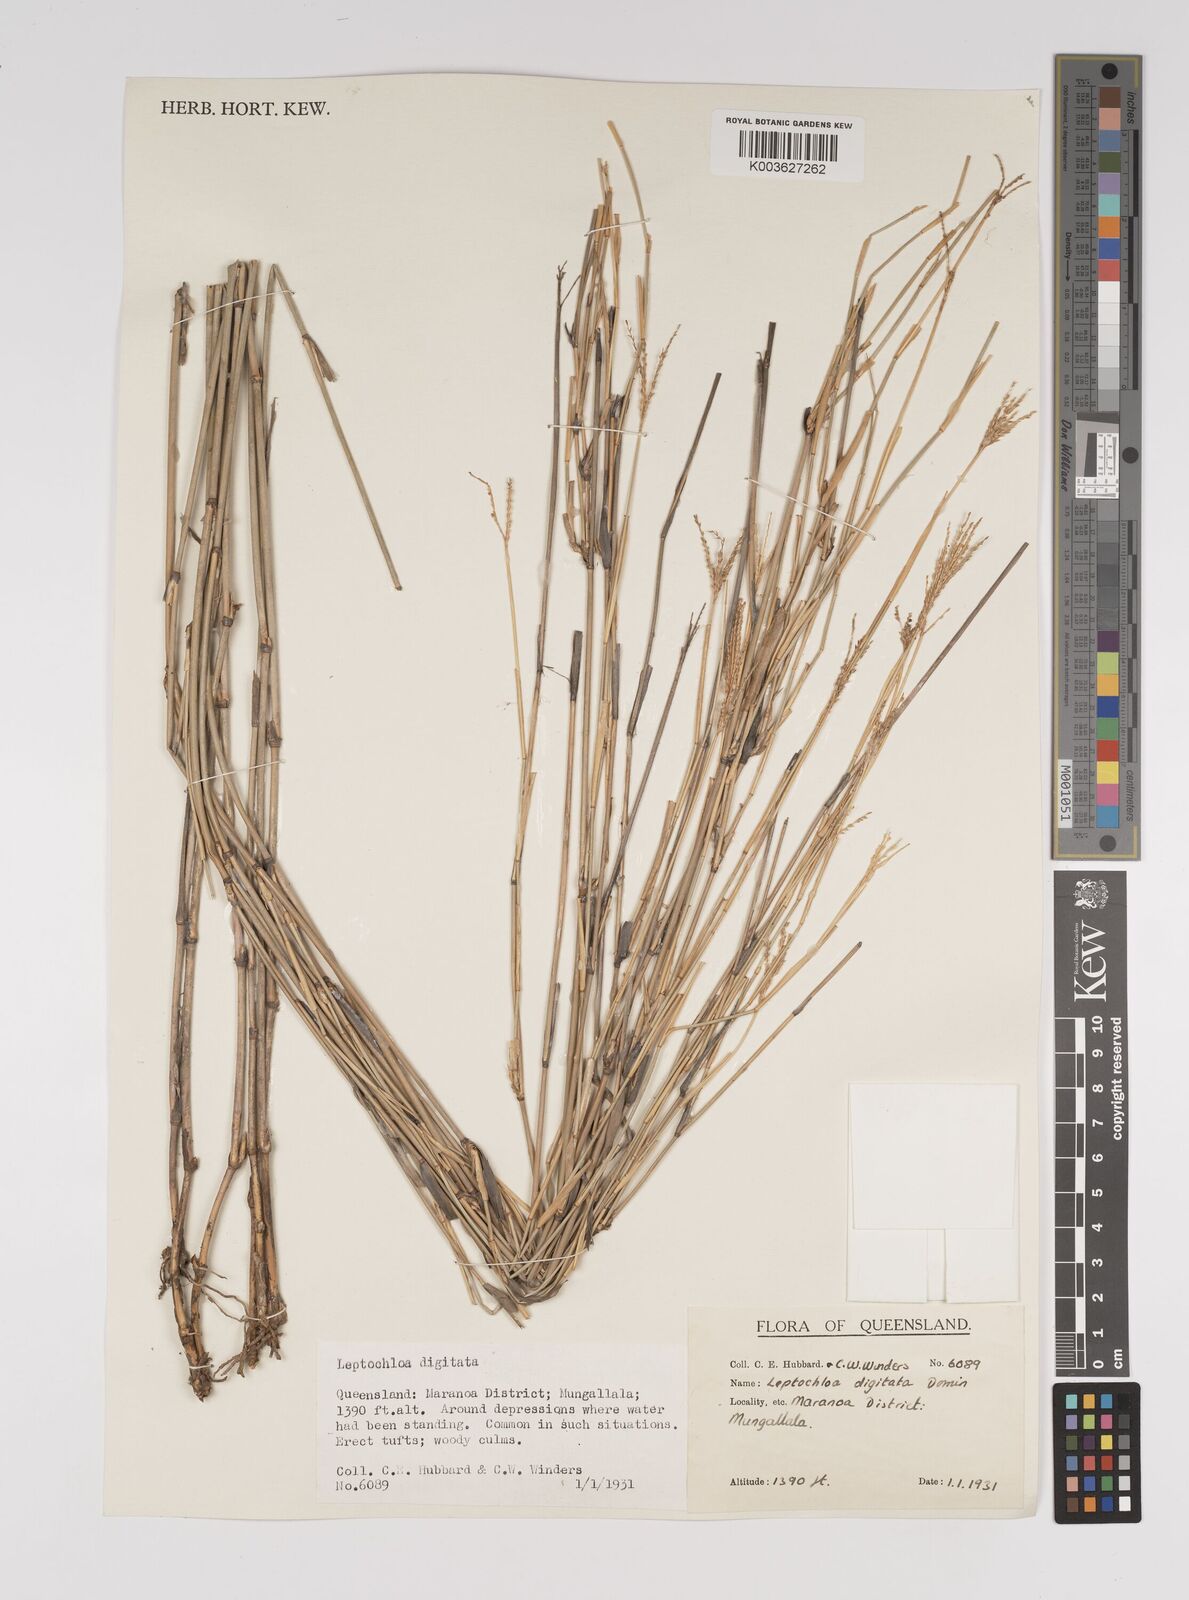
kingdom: Plantae
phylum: Tracheophyta
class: Liliopsida
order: Poales
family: Poaceae
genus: Leptochloa
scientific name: Leptochloa digitata
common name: Finger sprangletop
